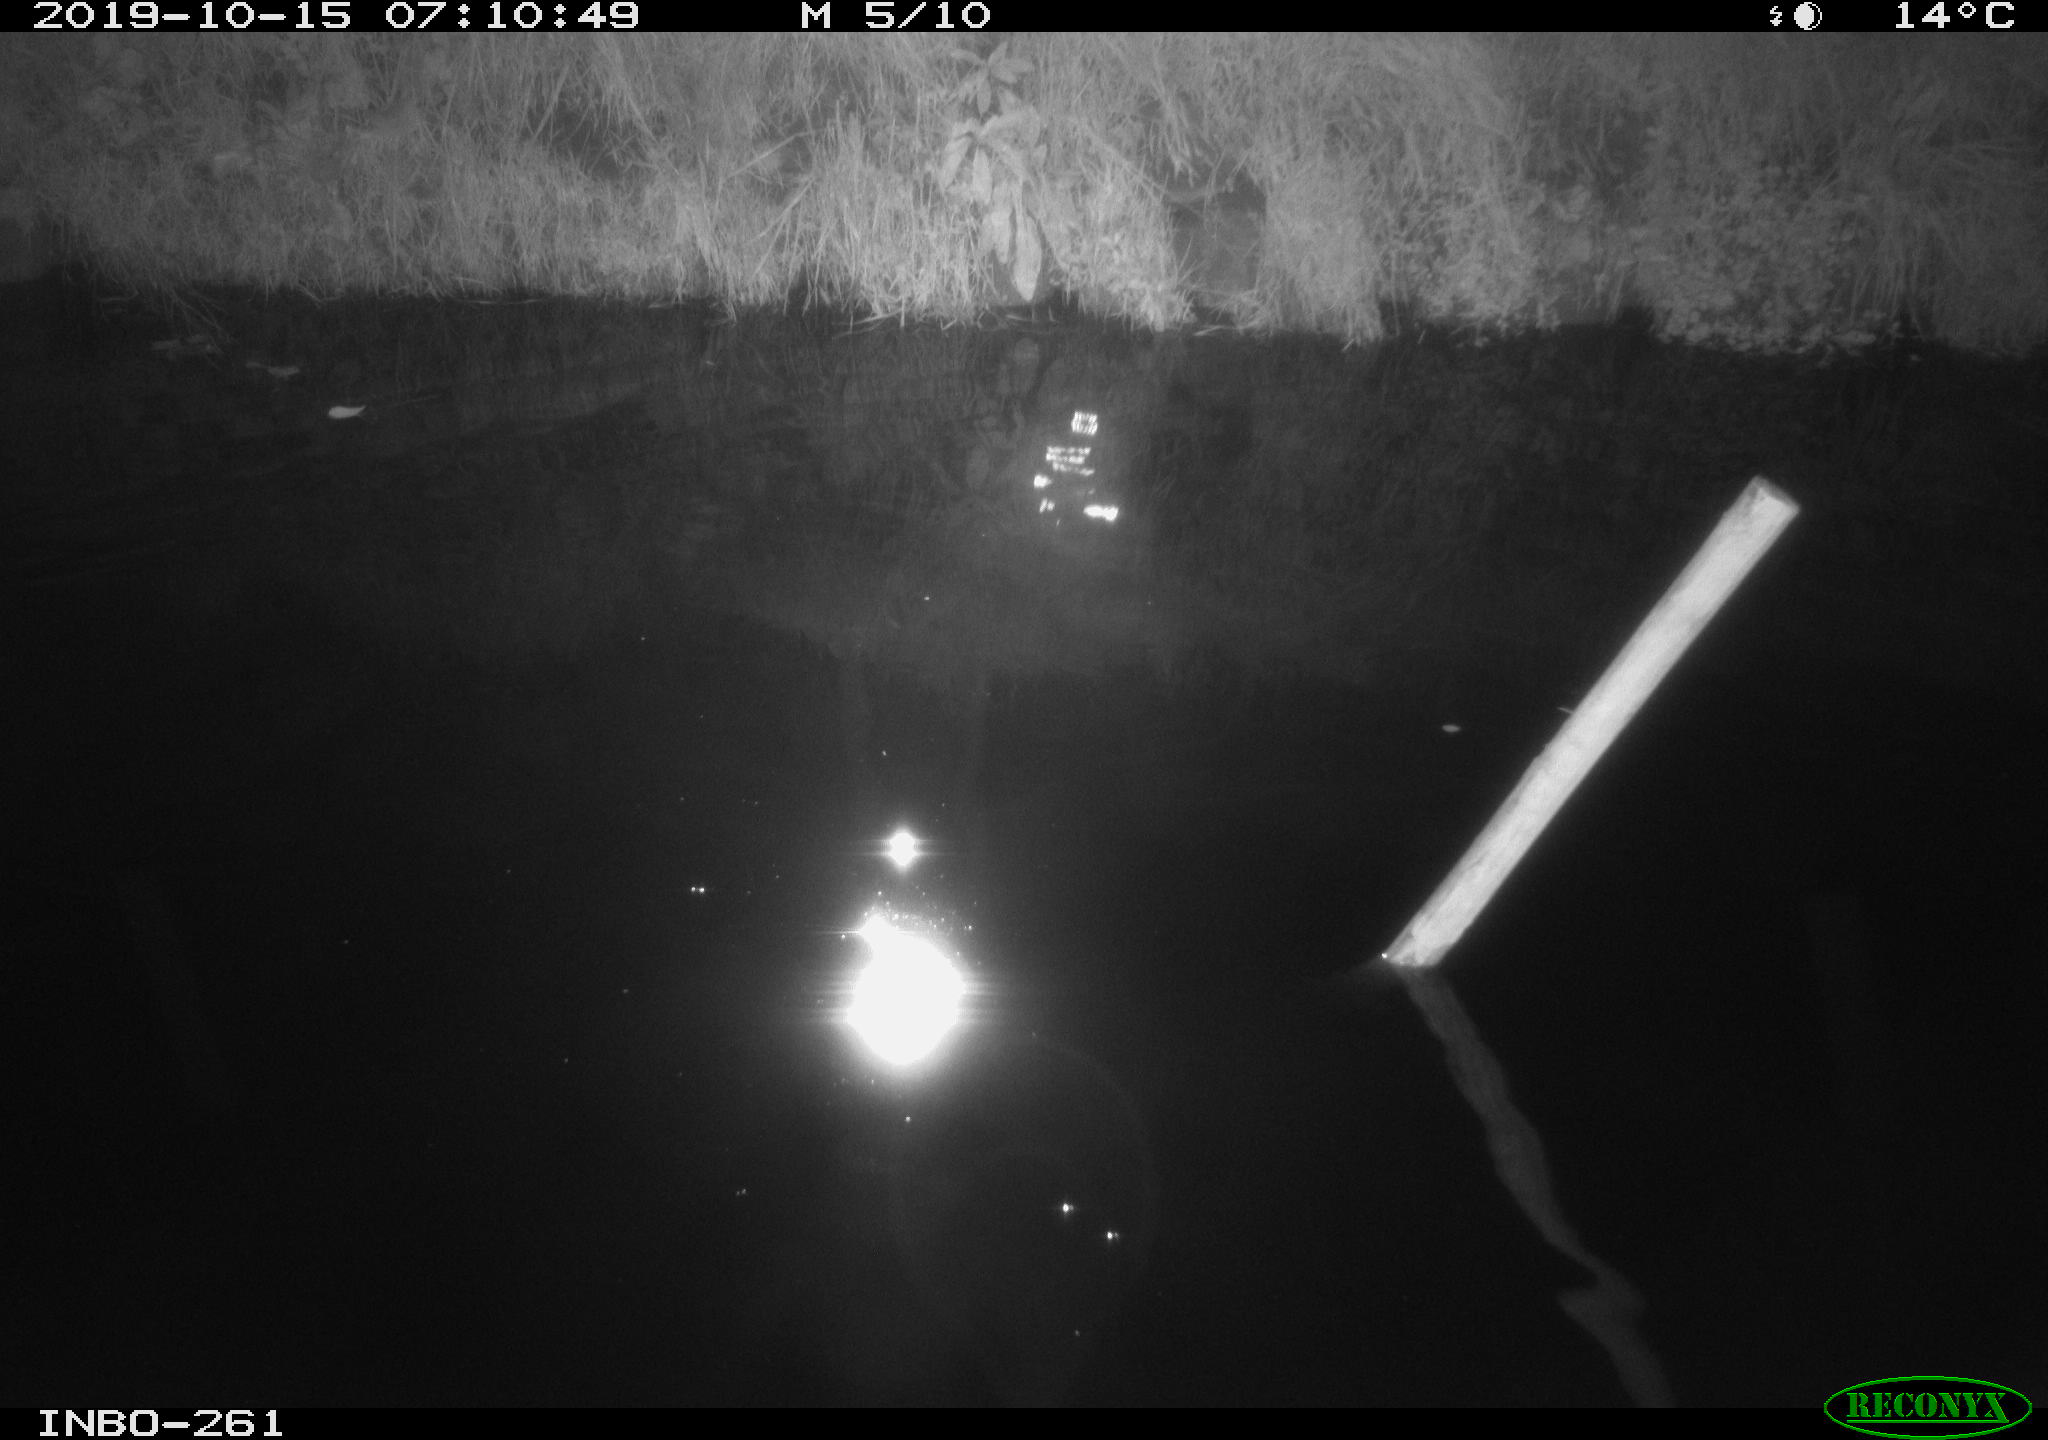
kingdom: Animalia
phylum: Chordata
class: Aves
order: Anseriformes
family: Anatidae
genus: Anas
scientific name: Anas platyrhynchos
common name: Mallard
